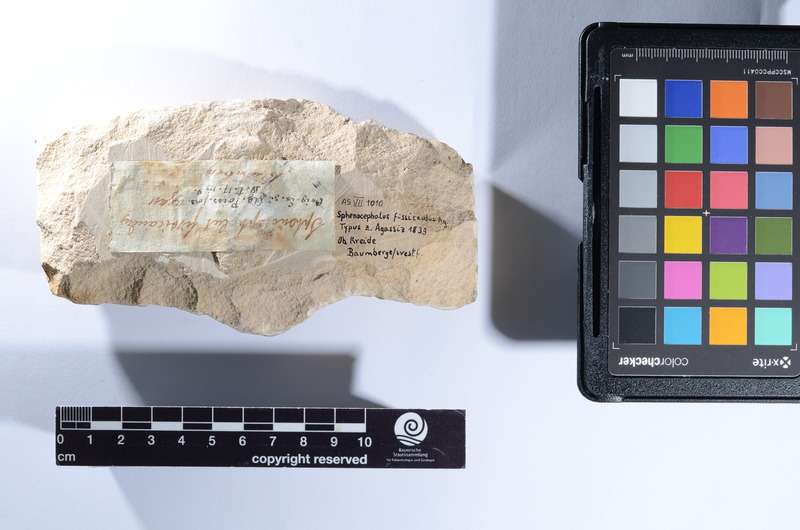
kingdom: Animalia
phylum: Chordata
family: Dorypteridae
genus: Sphenocephalus
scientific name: Sphenocephalus fissicaudus
